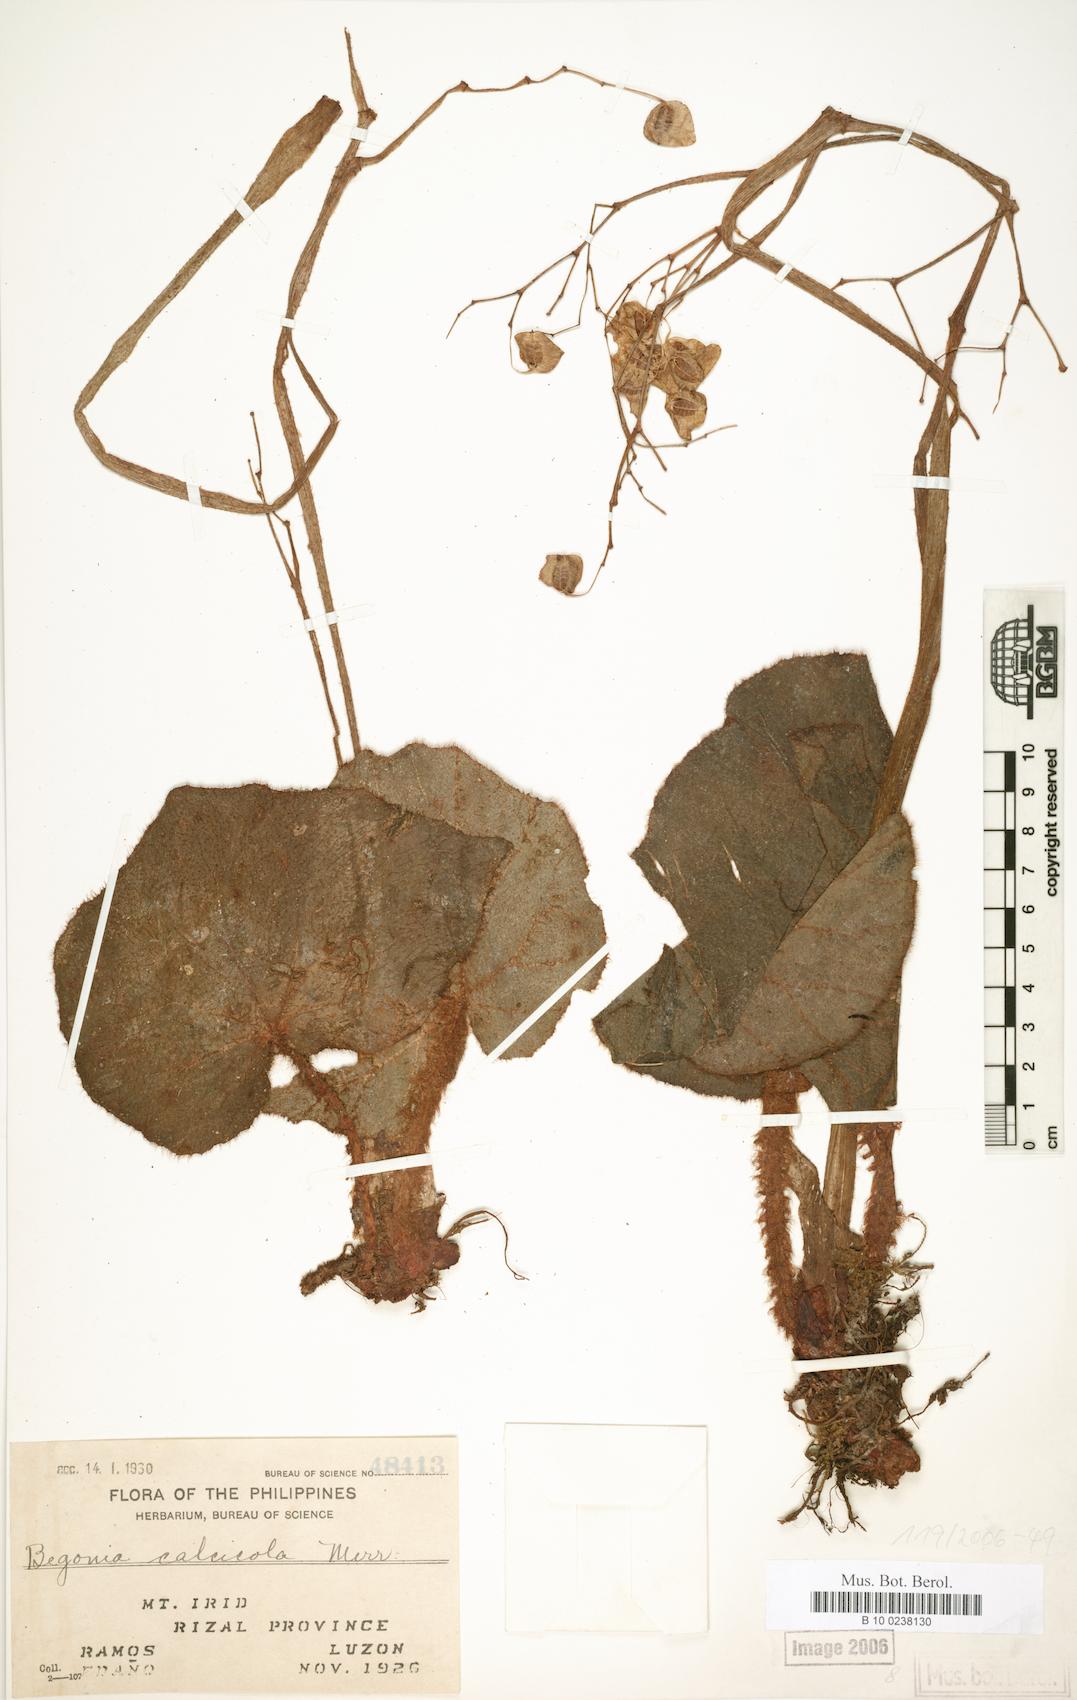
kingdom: Plantae
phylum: Tracheophyta
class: Magnoliopsida
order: Cucurbitales
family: Begoniaceae
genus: Begonia
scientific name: Begonia calcicola
